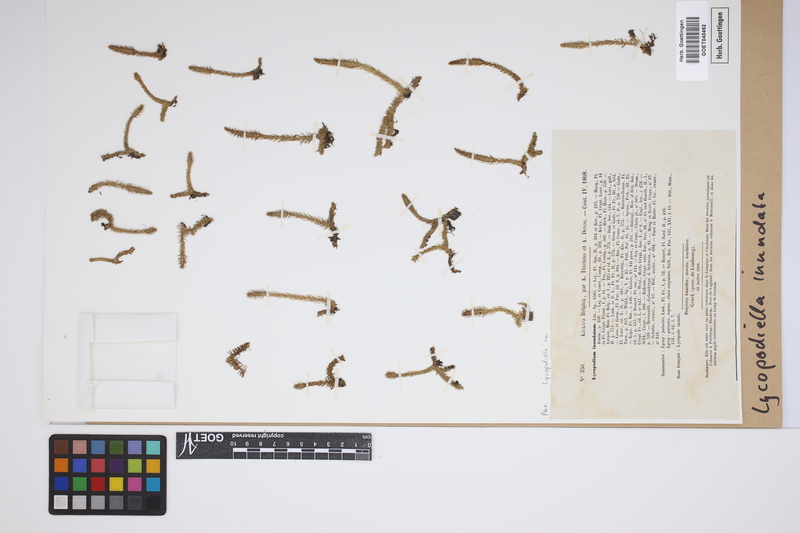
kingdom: Plantae
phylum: Tracheophyta
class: Lycopodiopsida
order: Lycopodiales
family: Lycopodiaceae
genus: Lycopodiella
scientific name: Lycopodiella inundata
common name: Marsh clubmoss
